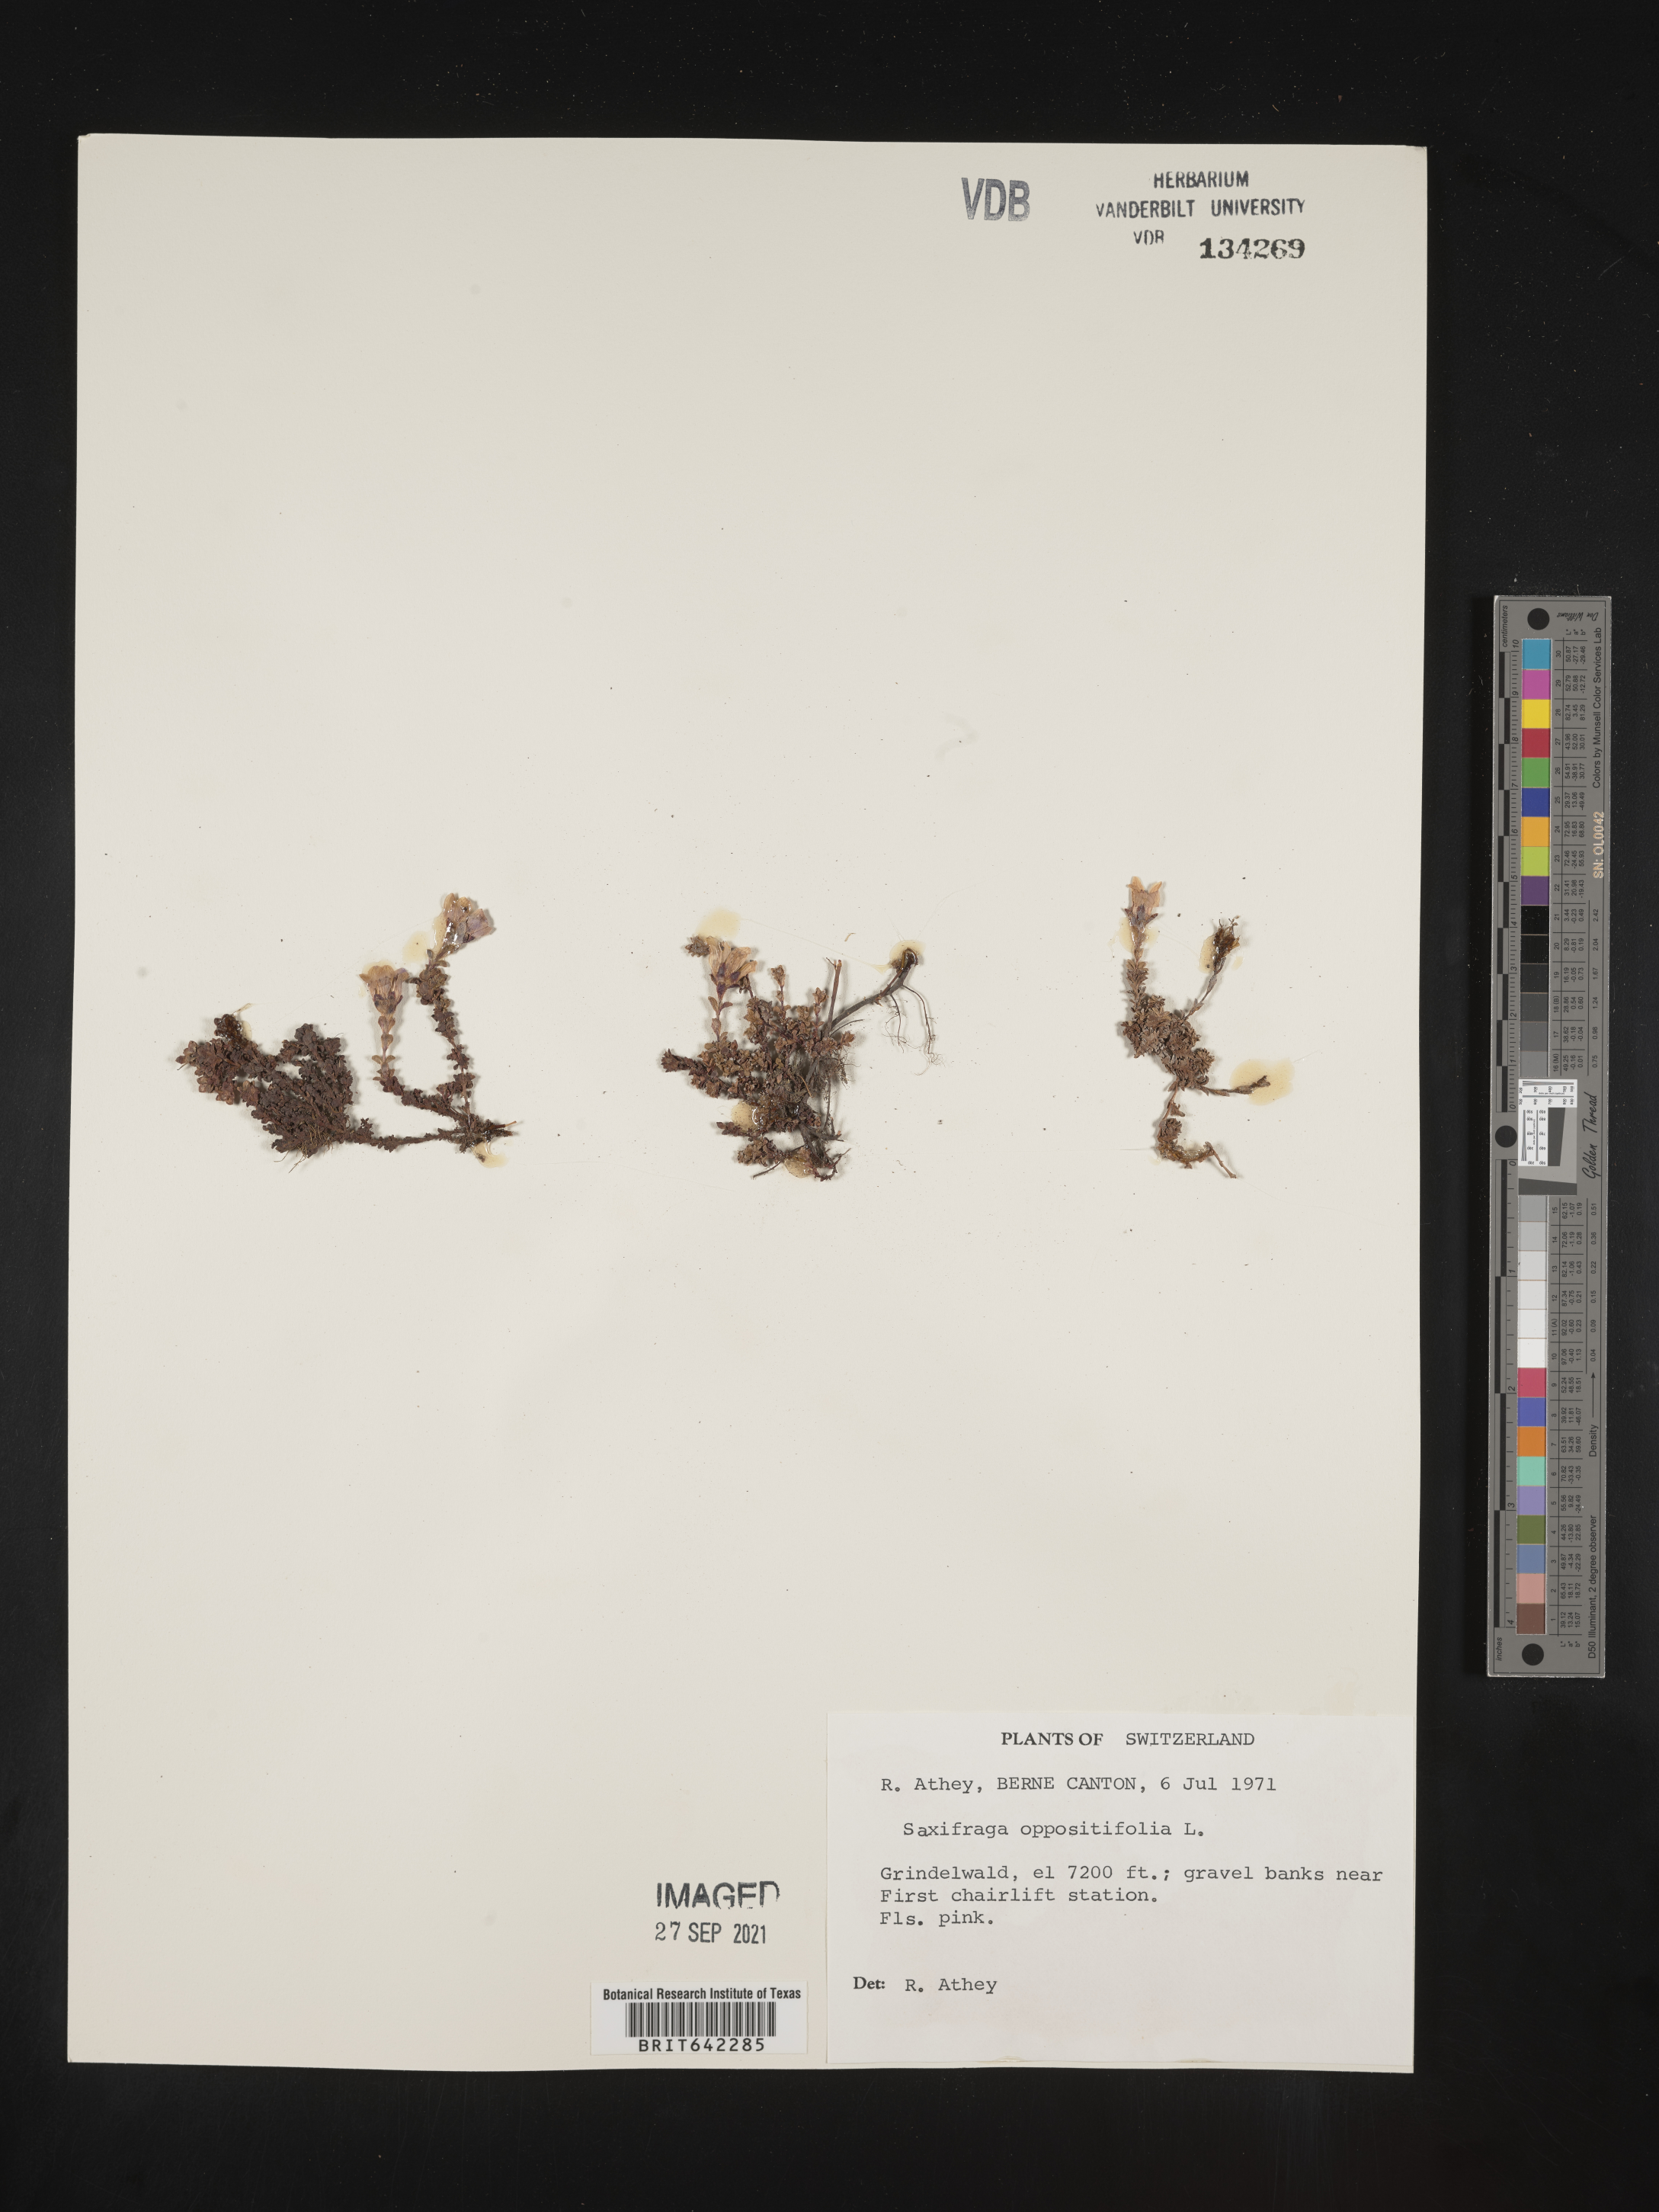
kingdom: Plantae
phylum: Tracheophyta
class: Magnoliopsida
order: Saxifragales
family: Saxifragaceae
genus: Saxifraga
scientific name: Saxifraga
